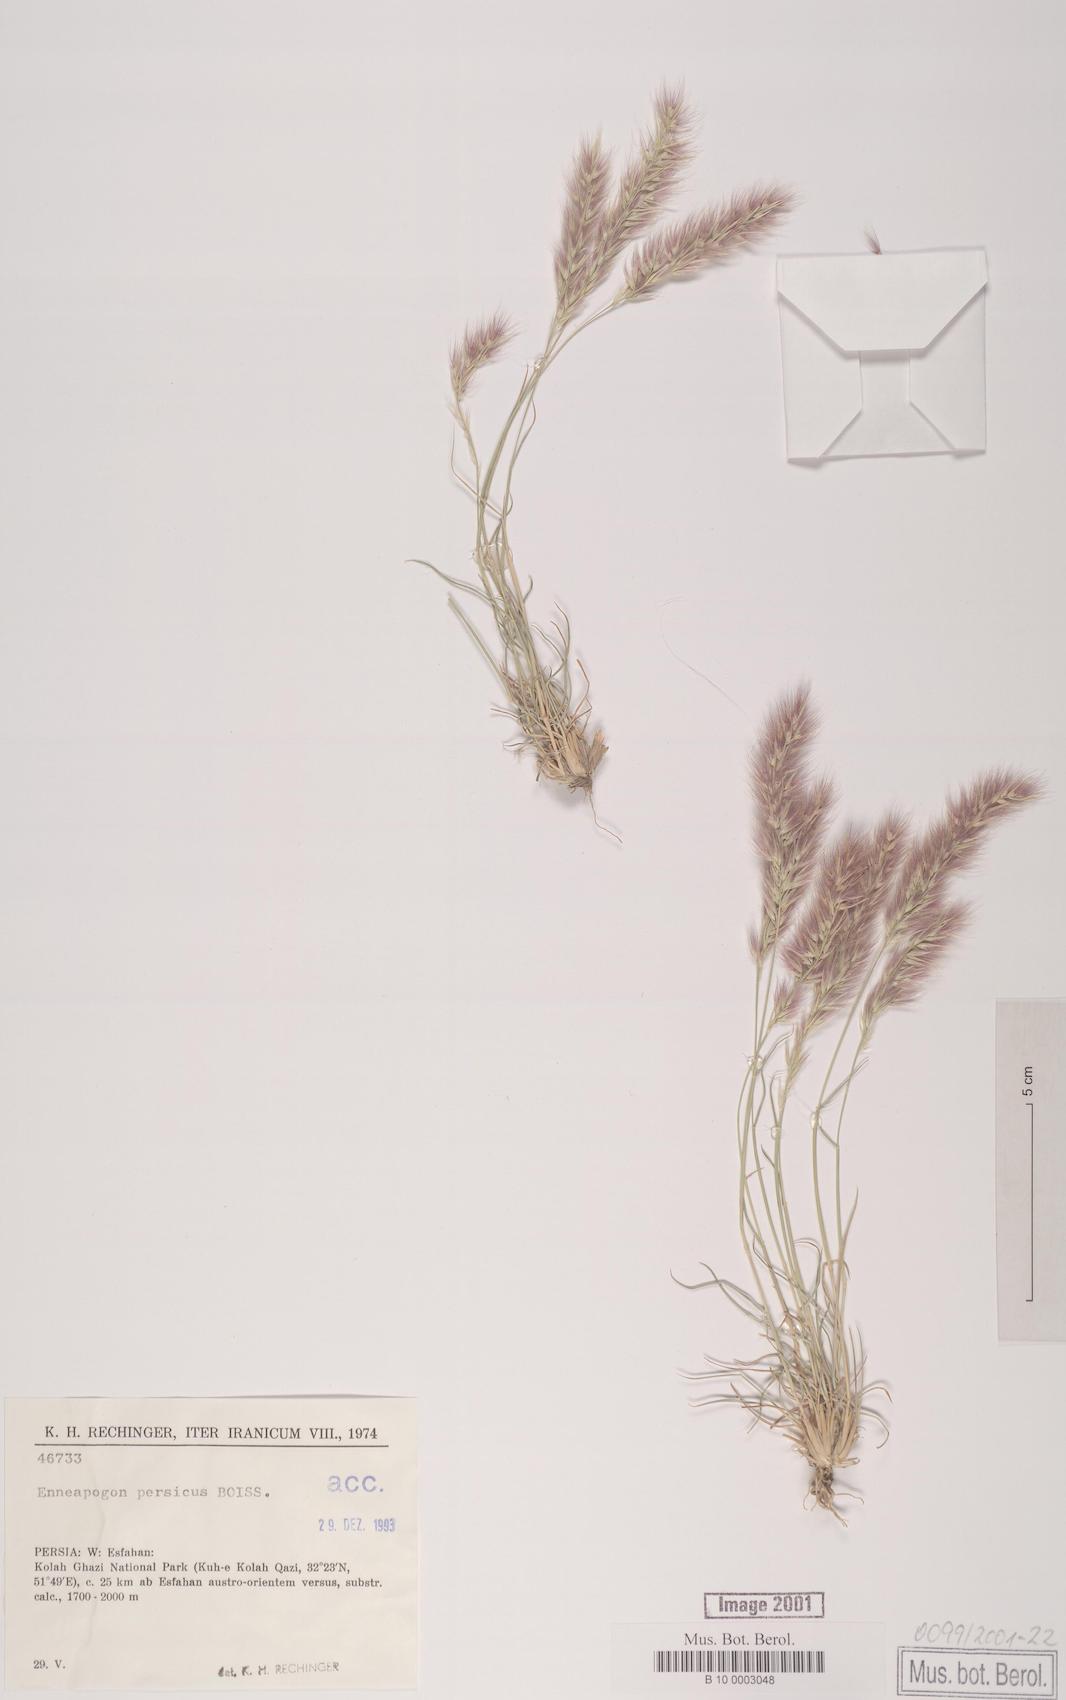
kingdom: Plantae
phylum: Tracheophyta
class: Liliopsida
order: Poales
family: Poaceae
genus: Enneapogon
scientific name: Enneapogon persicus
